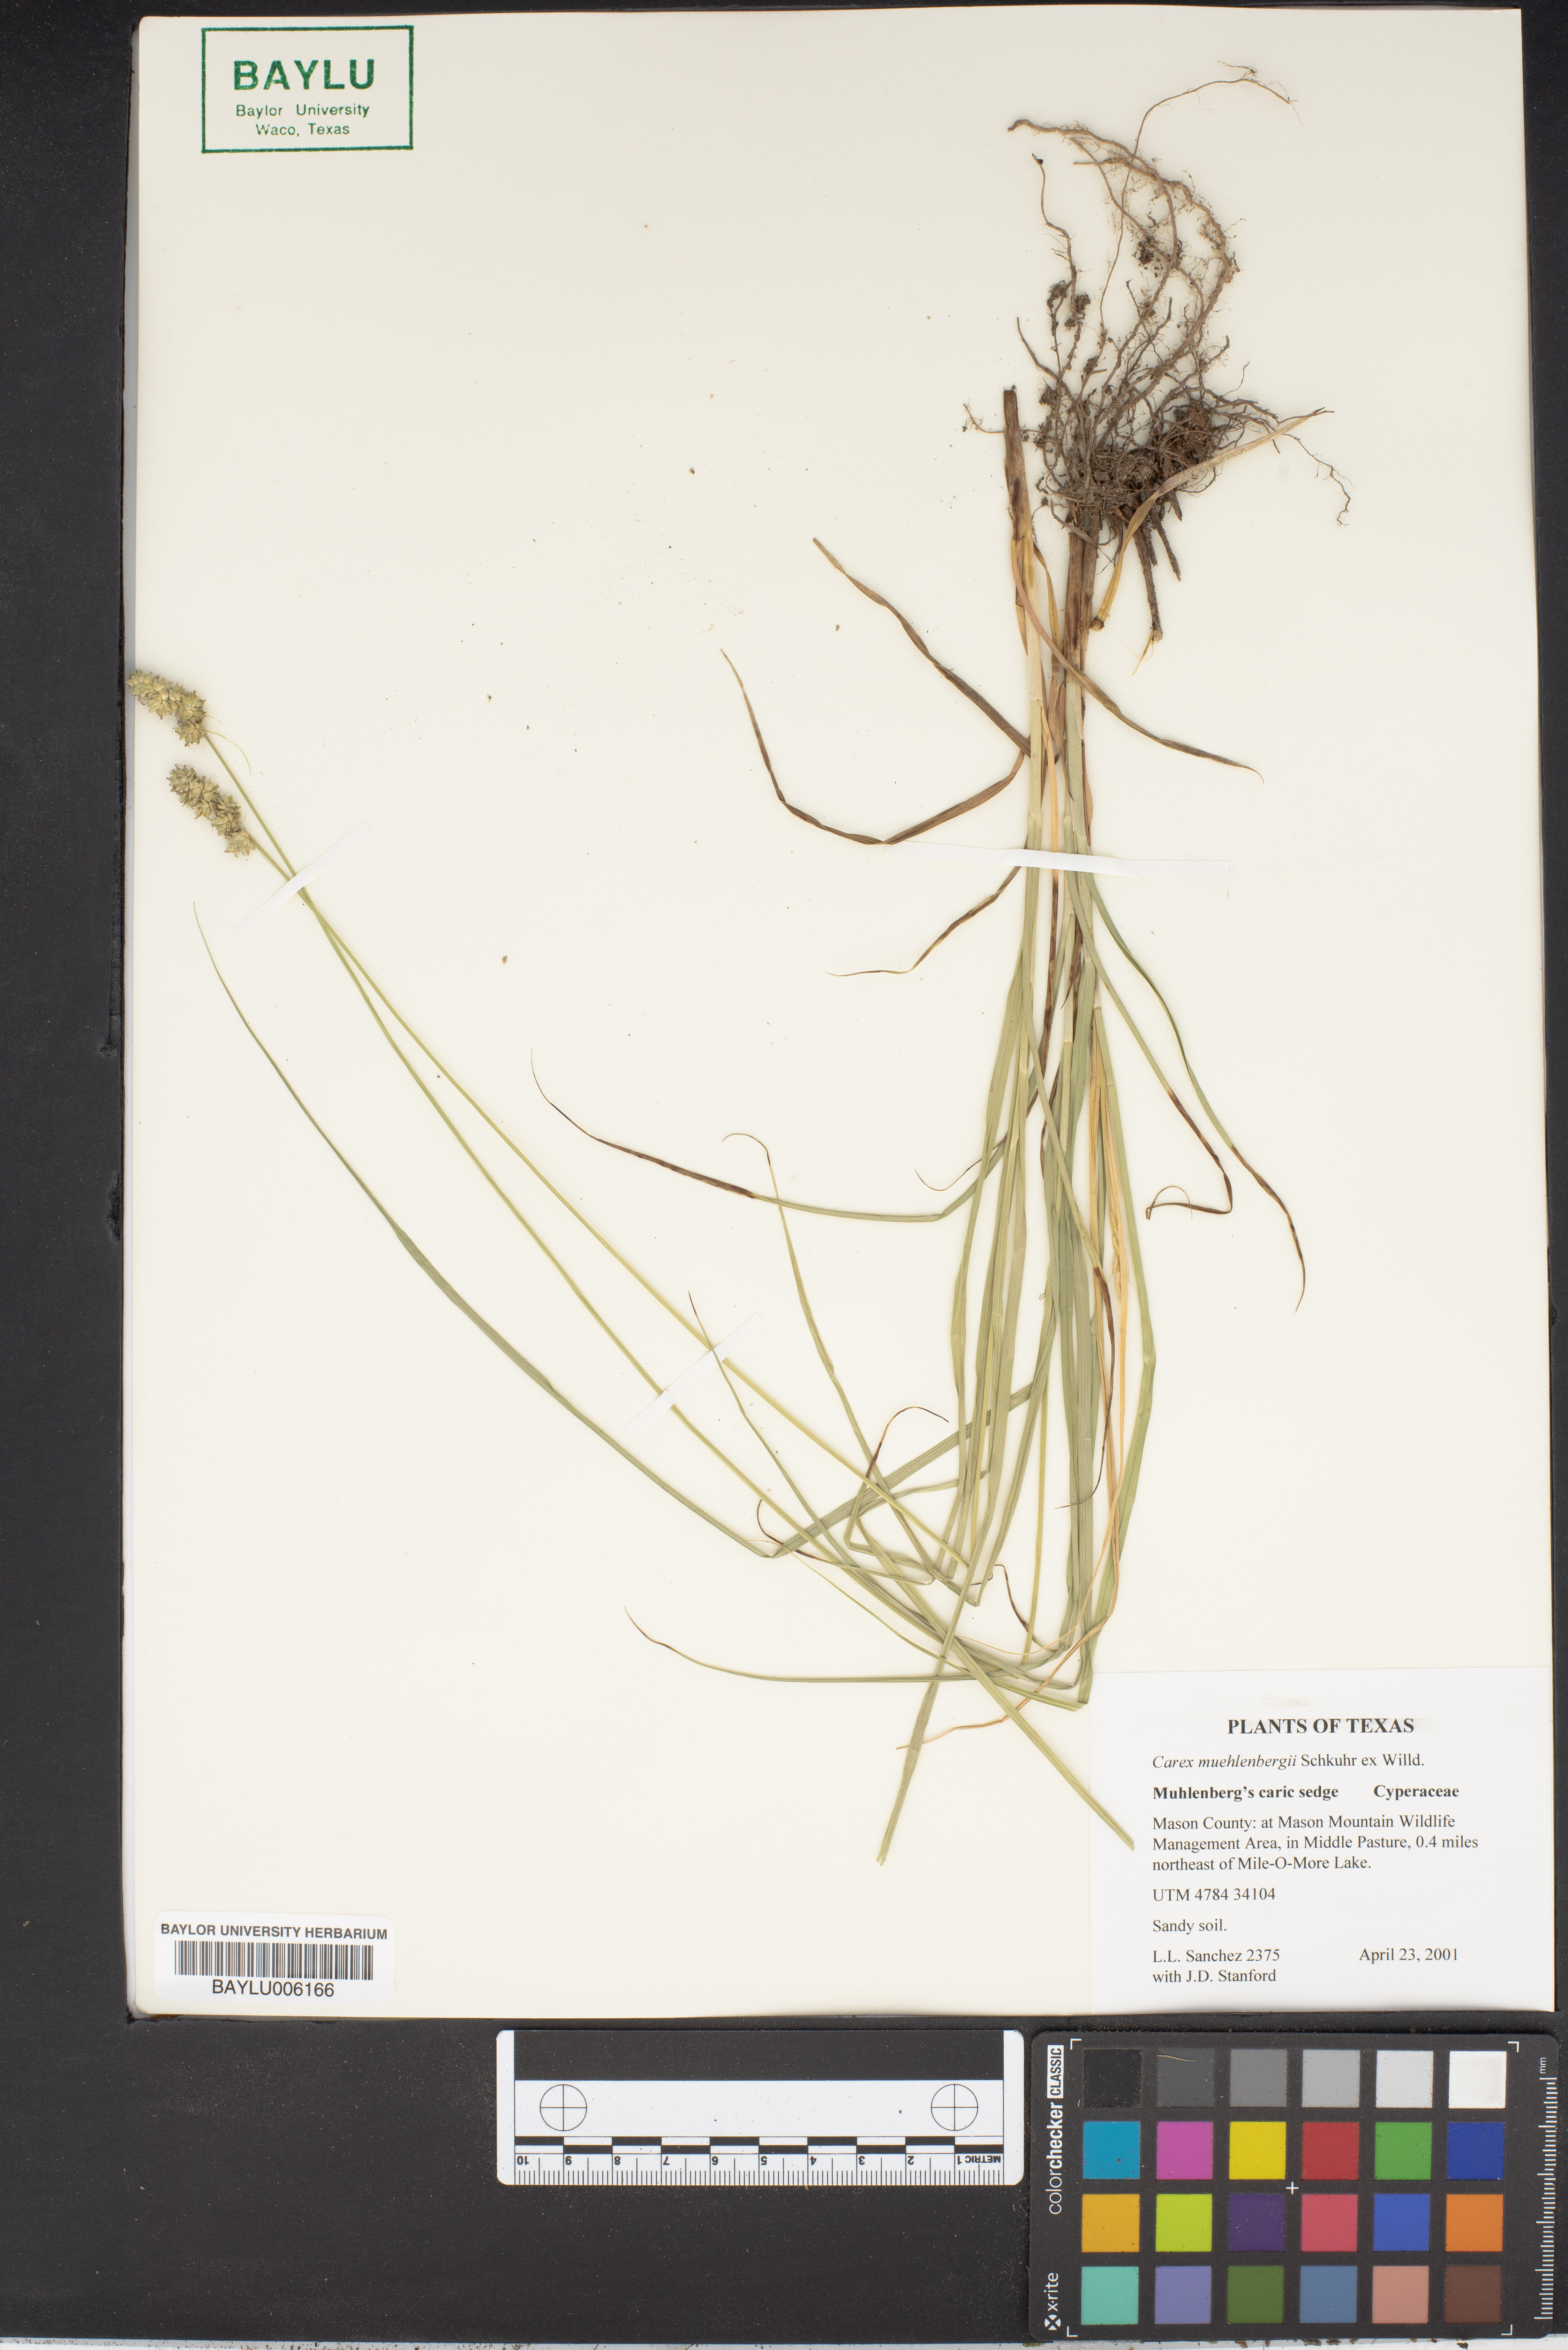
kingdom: Plantae
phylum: Tracheophyta
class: Liliopsida
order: Poales
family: Cyperaceae
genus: Carex
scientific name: Carex muehlenbergii
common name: Muhlenberg's bracted sedge
